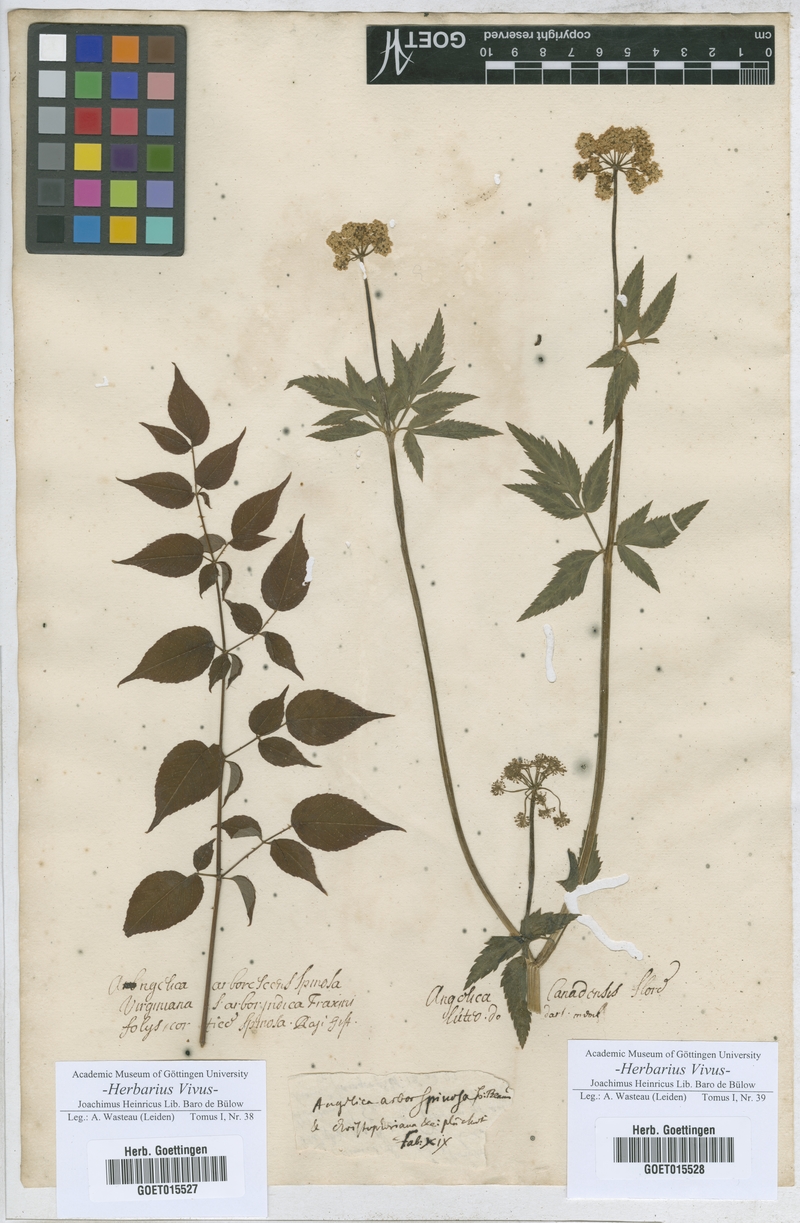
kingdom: Plantae
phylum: Tracheophyta
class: Magnoliopsida
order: Apiales
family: Apiaceae
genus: Angelica
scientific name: Angelica
